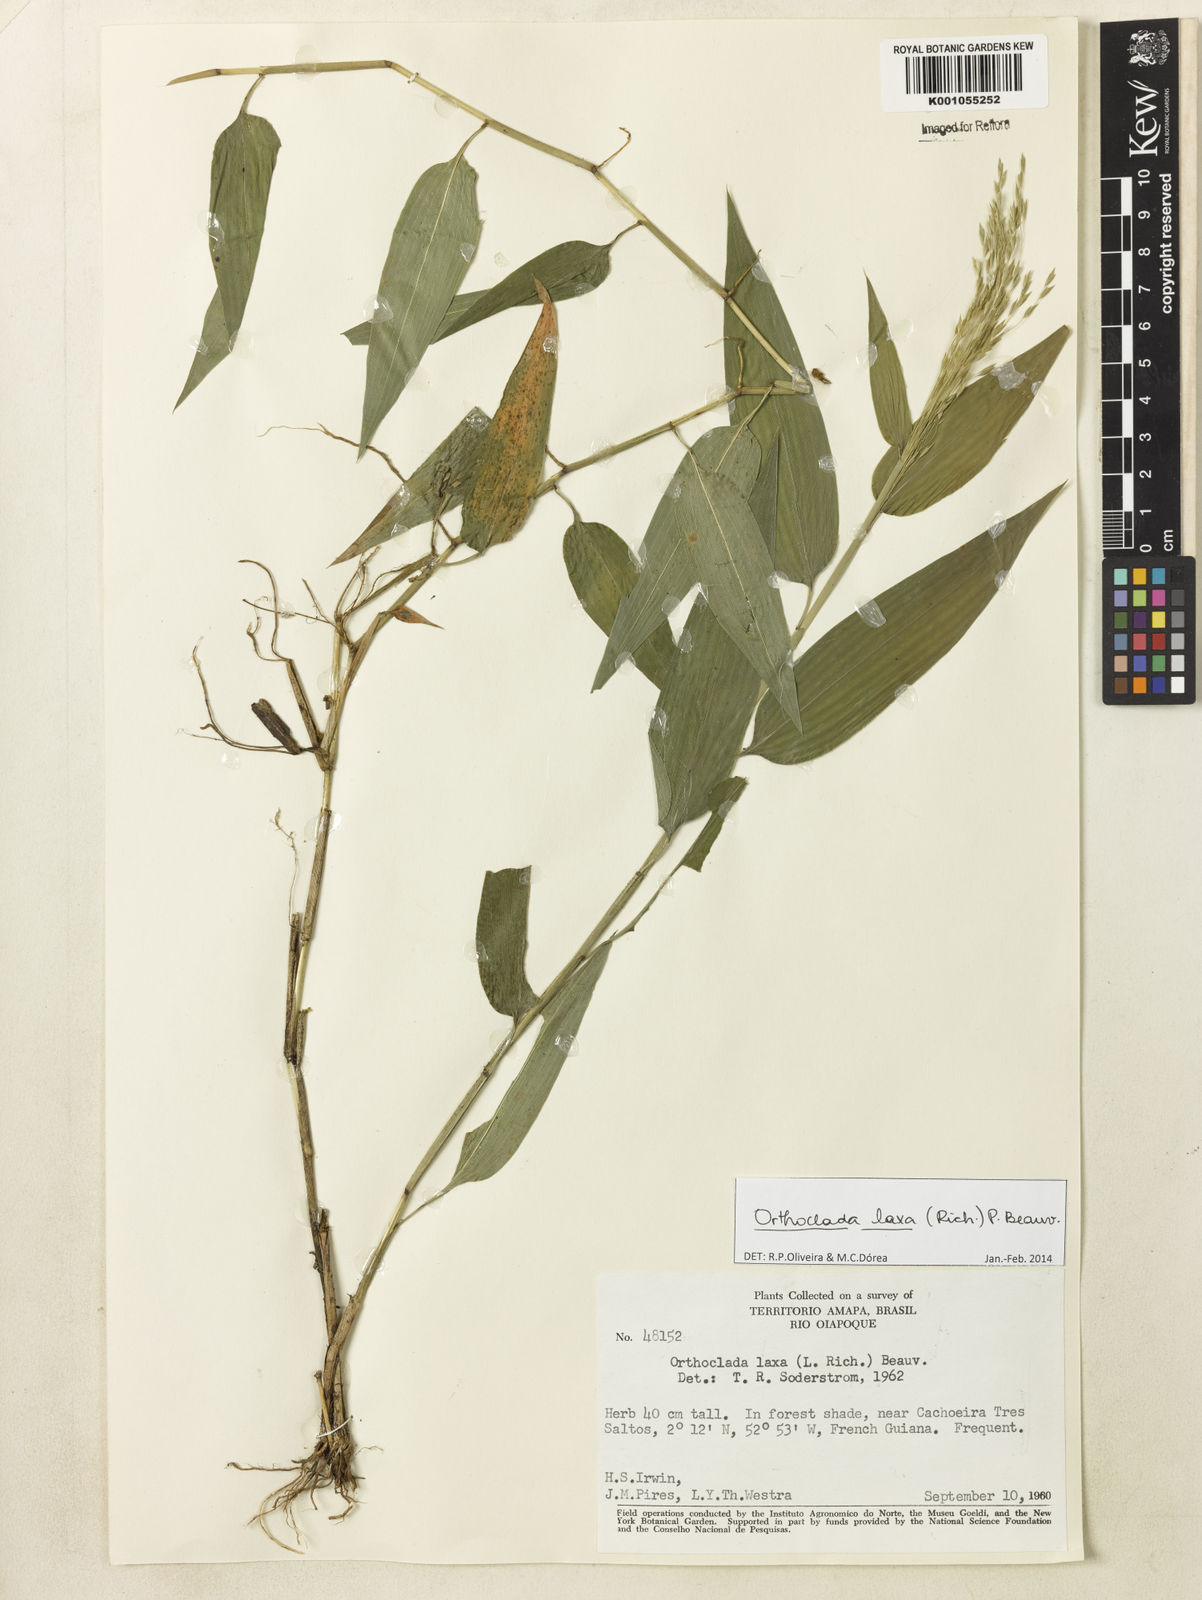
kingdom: Plantae
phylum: Tracheophyta
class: Liliopsida
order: Poales
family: Poaceae
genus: Orthoclada
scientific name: Orthoclada laxa
